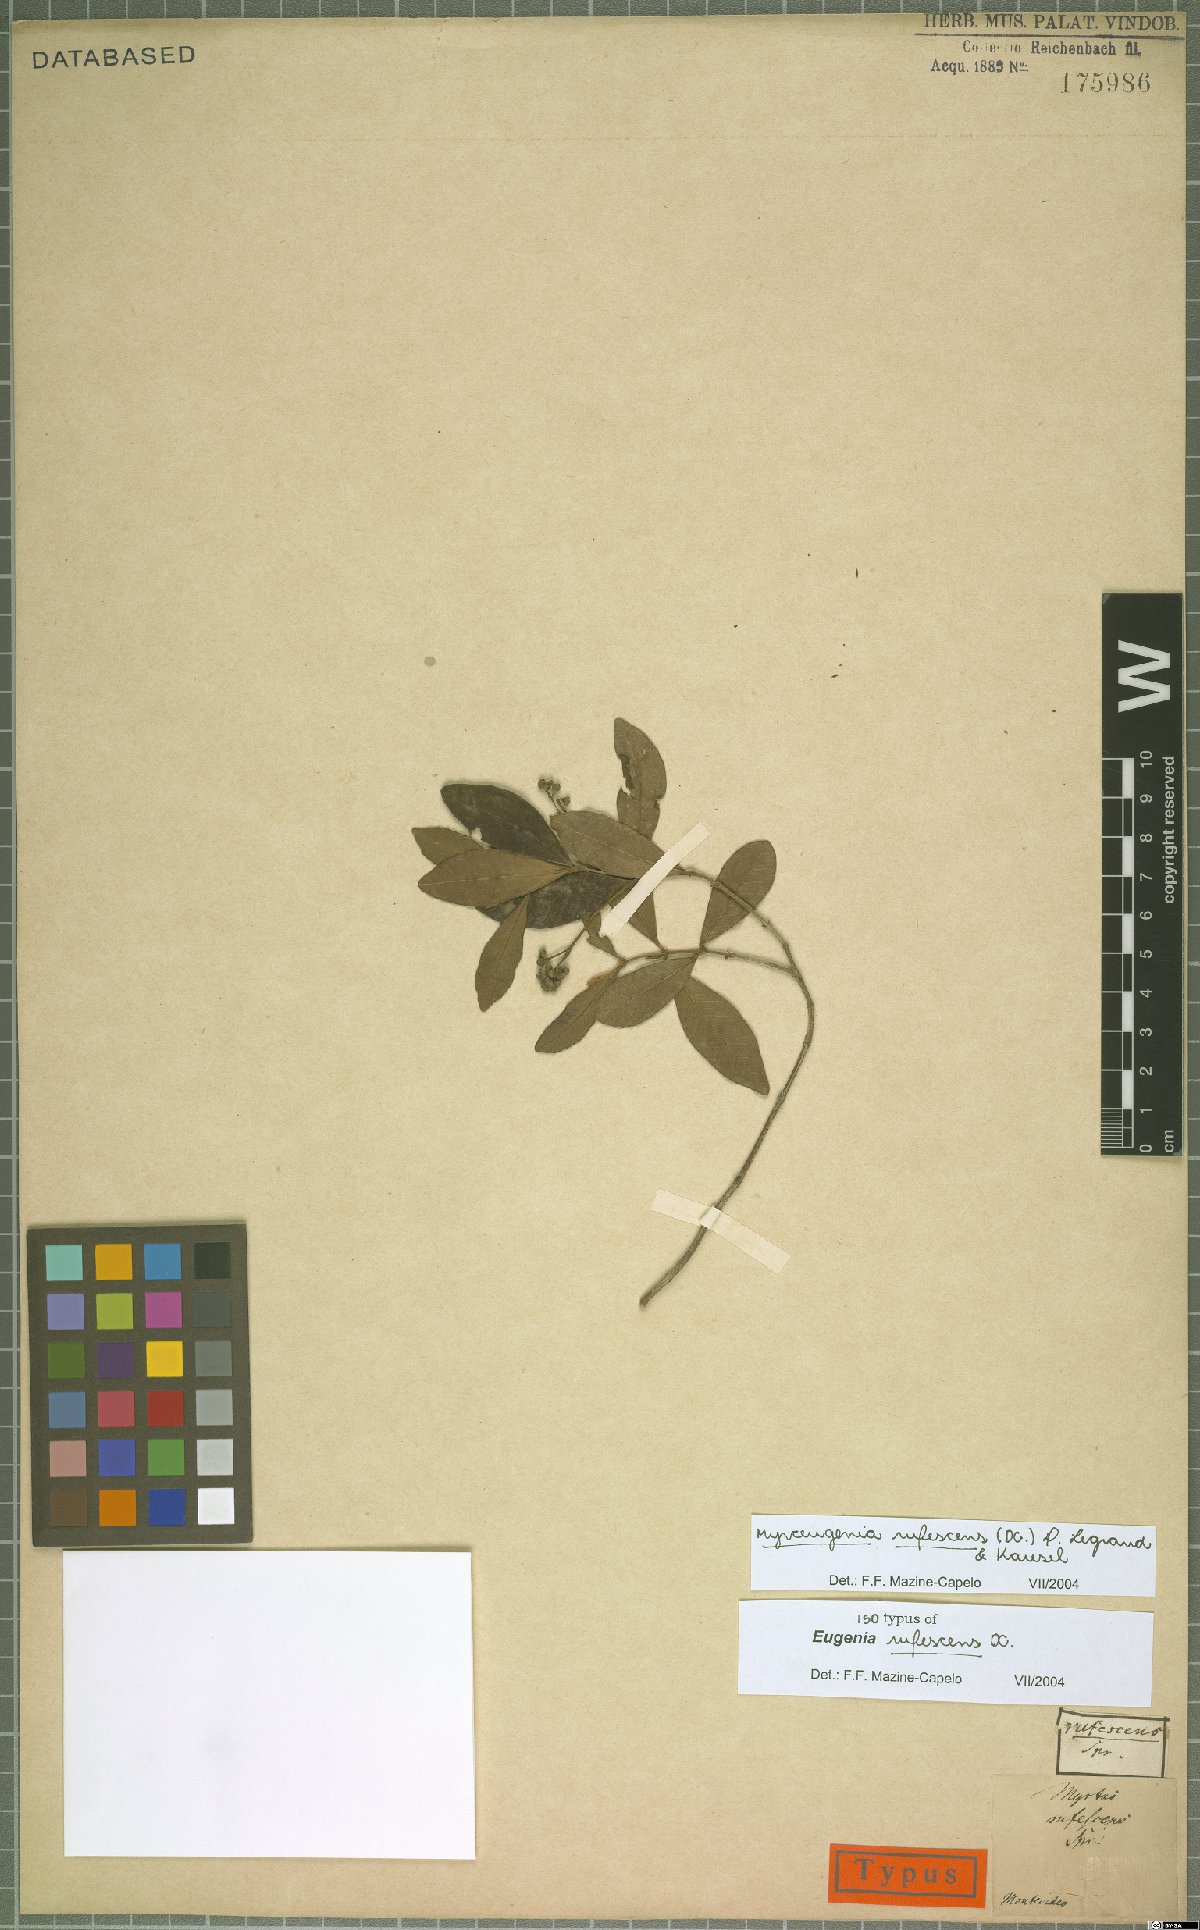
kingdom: Plantae
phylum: Tracheophyta
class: Magnoliopsida
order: Myrtales
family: Myrtaceae
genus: Myrceugenia
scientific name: Myrceugenia rufescens
